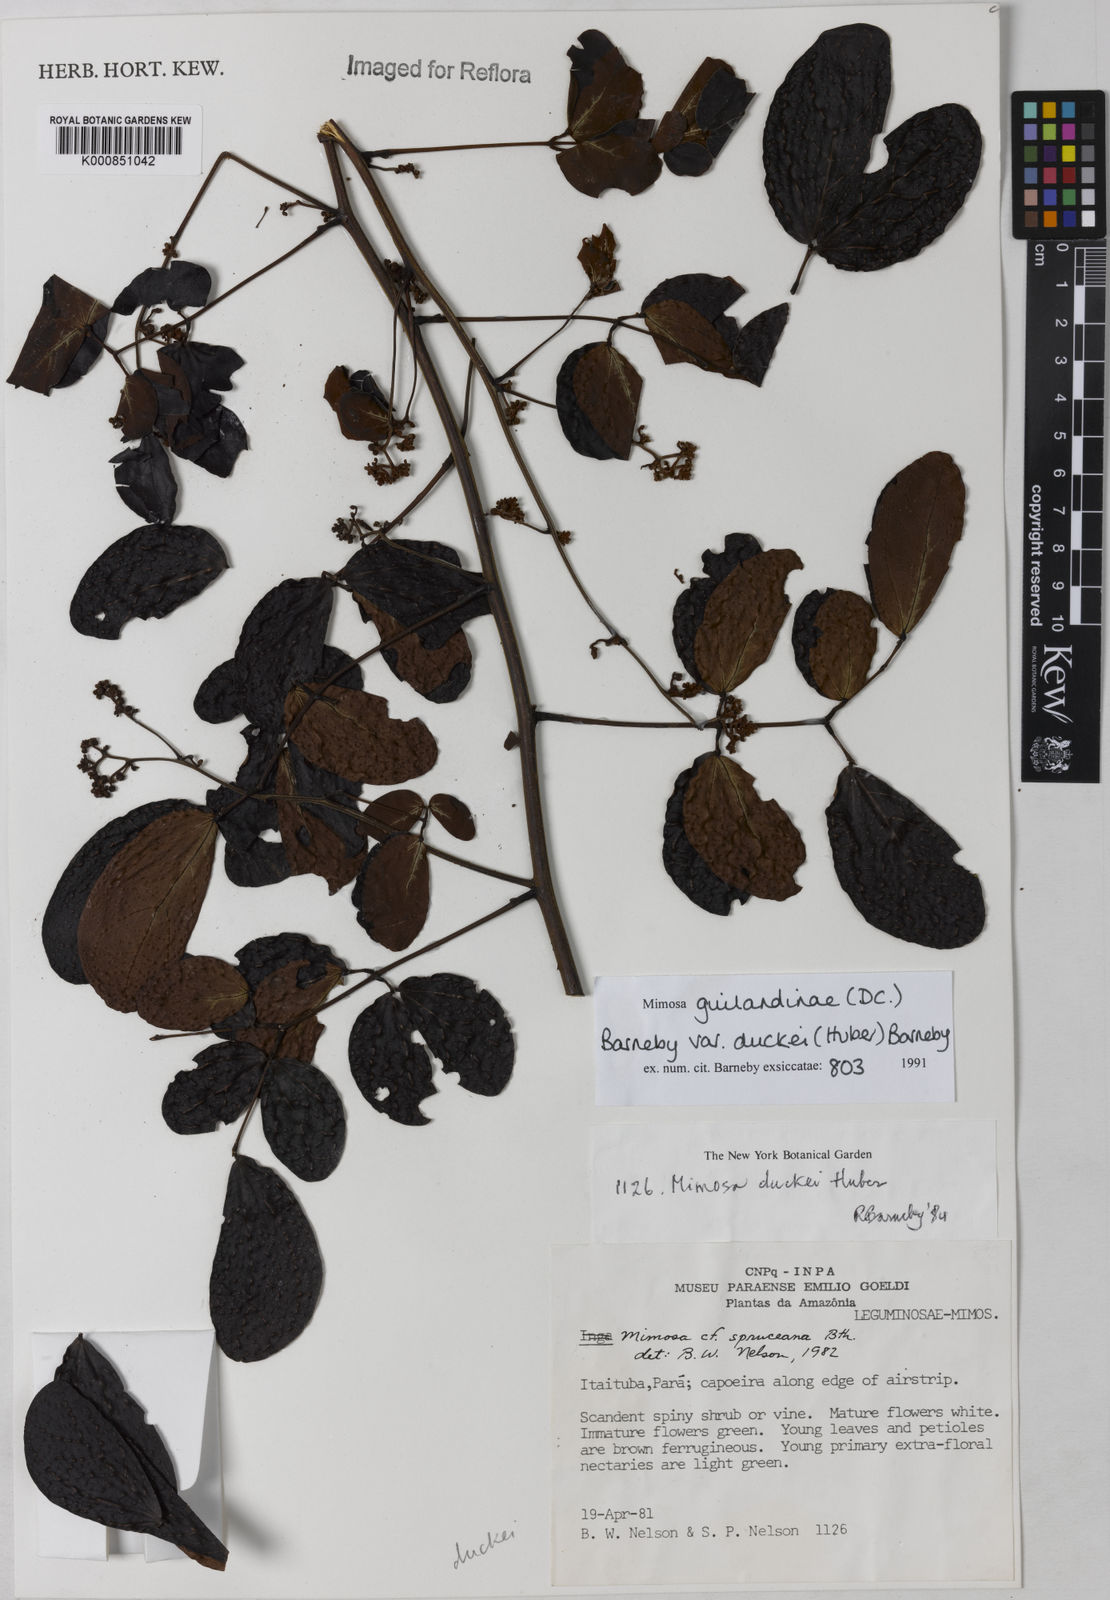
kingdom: Plantae
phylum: Tracheophyta
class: Magnoliopsida
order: Fabales
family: Fabaceae
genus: Mimosa
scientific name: Mimosa guilandinae
